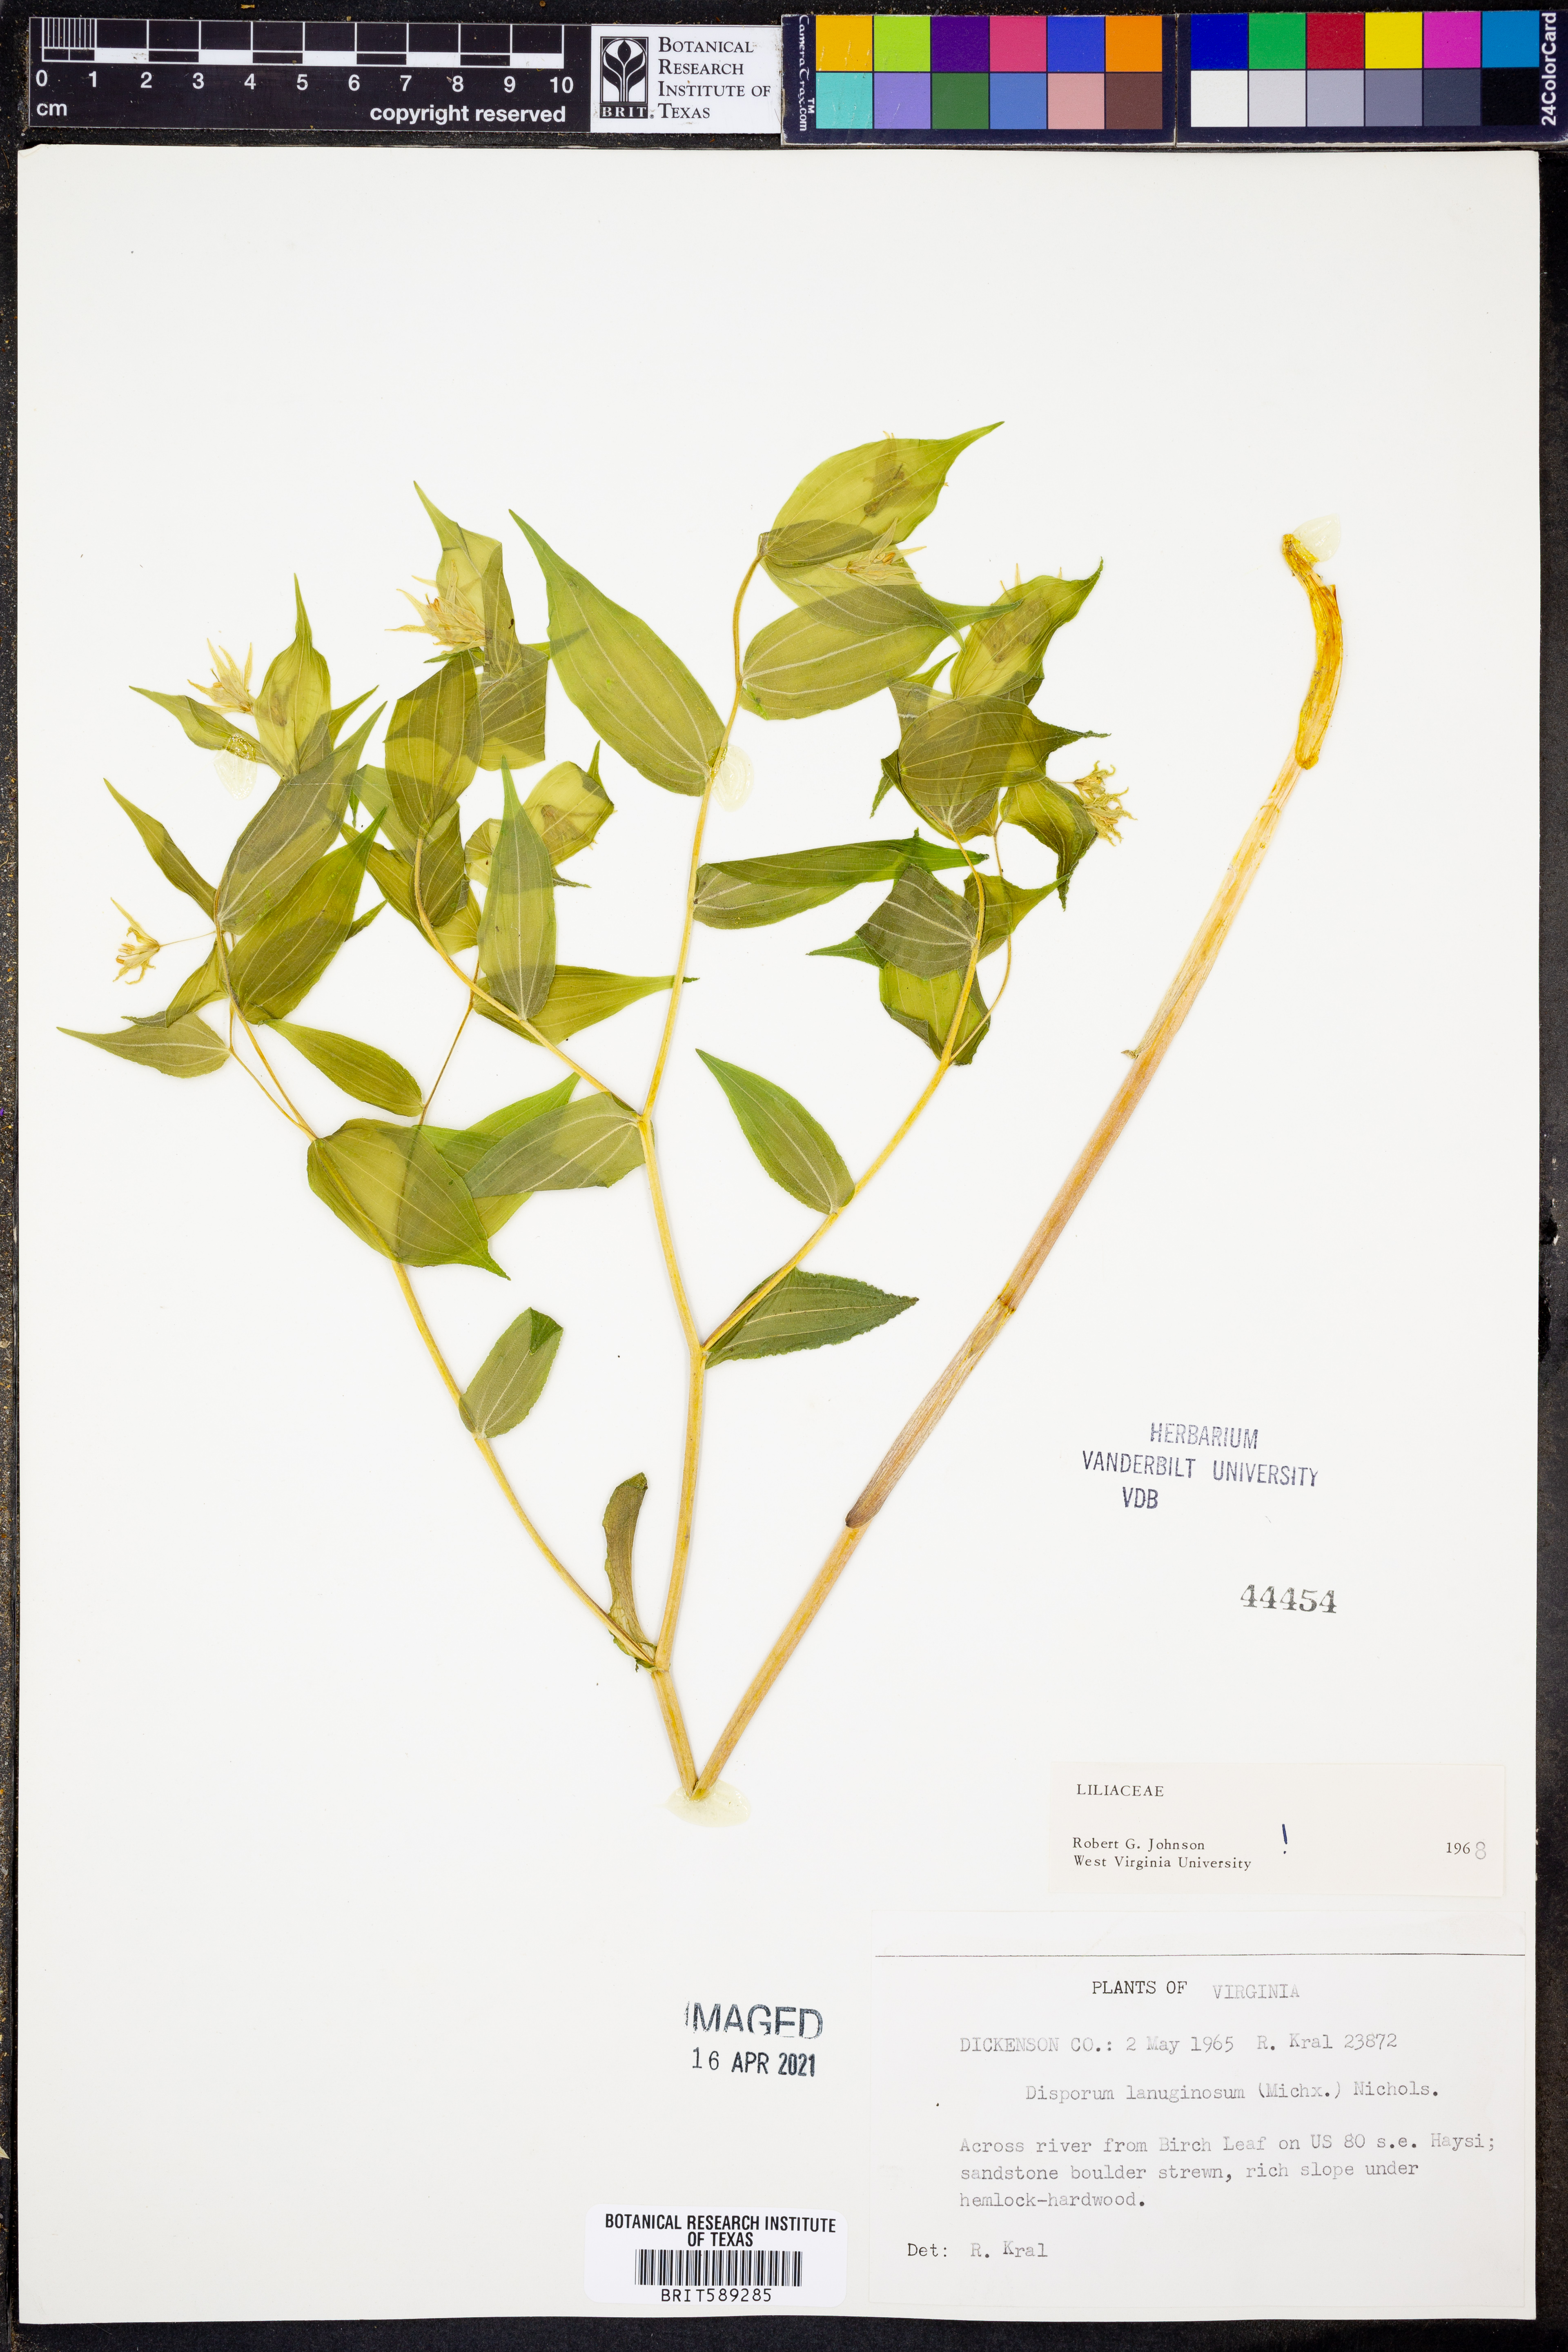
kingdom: Plantae
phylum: Tracheophyta
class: Liliopsida
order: Liliales
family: Liliaceae
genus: Prosartes
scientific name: Prosartes lanuginosa
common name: Hairy mandarin
